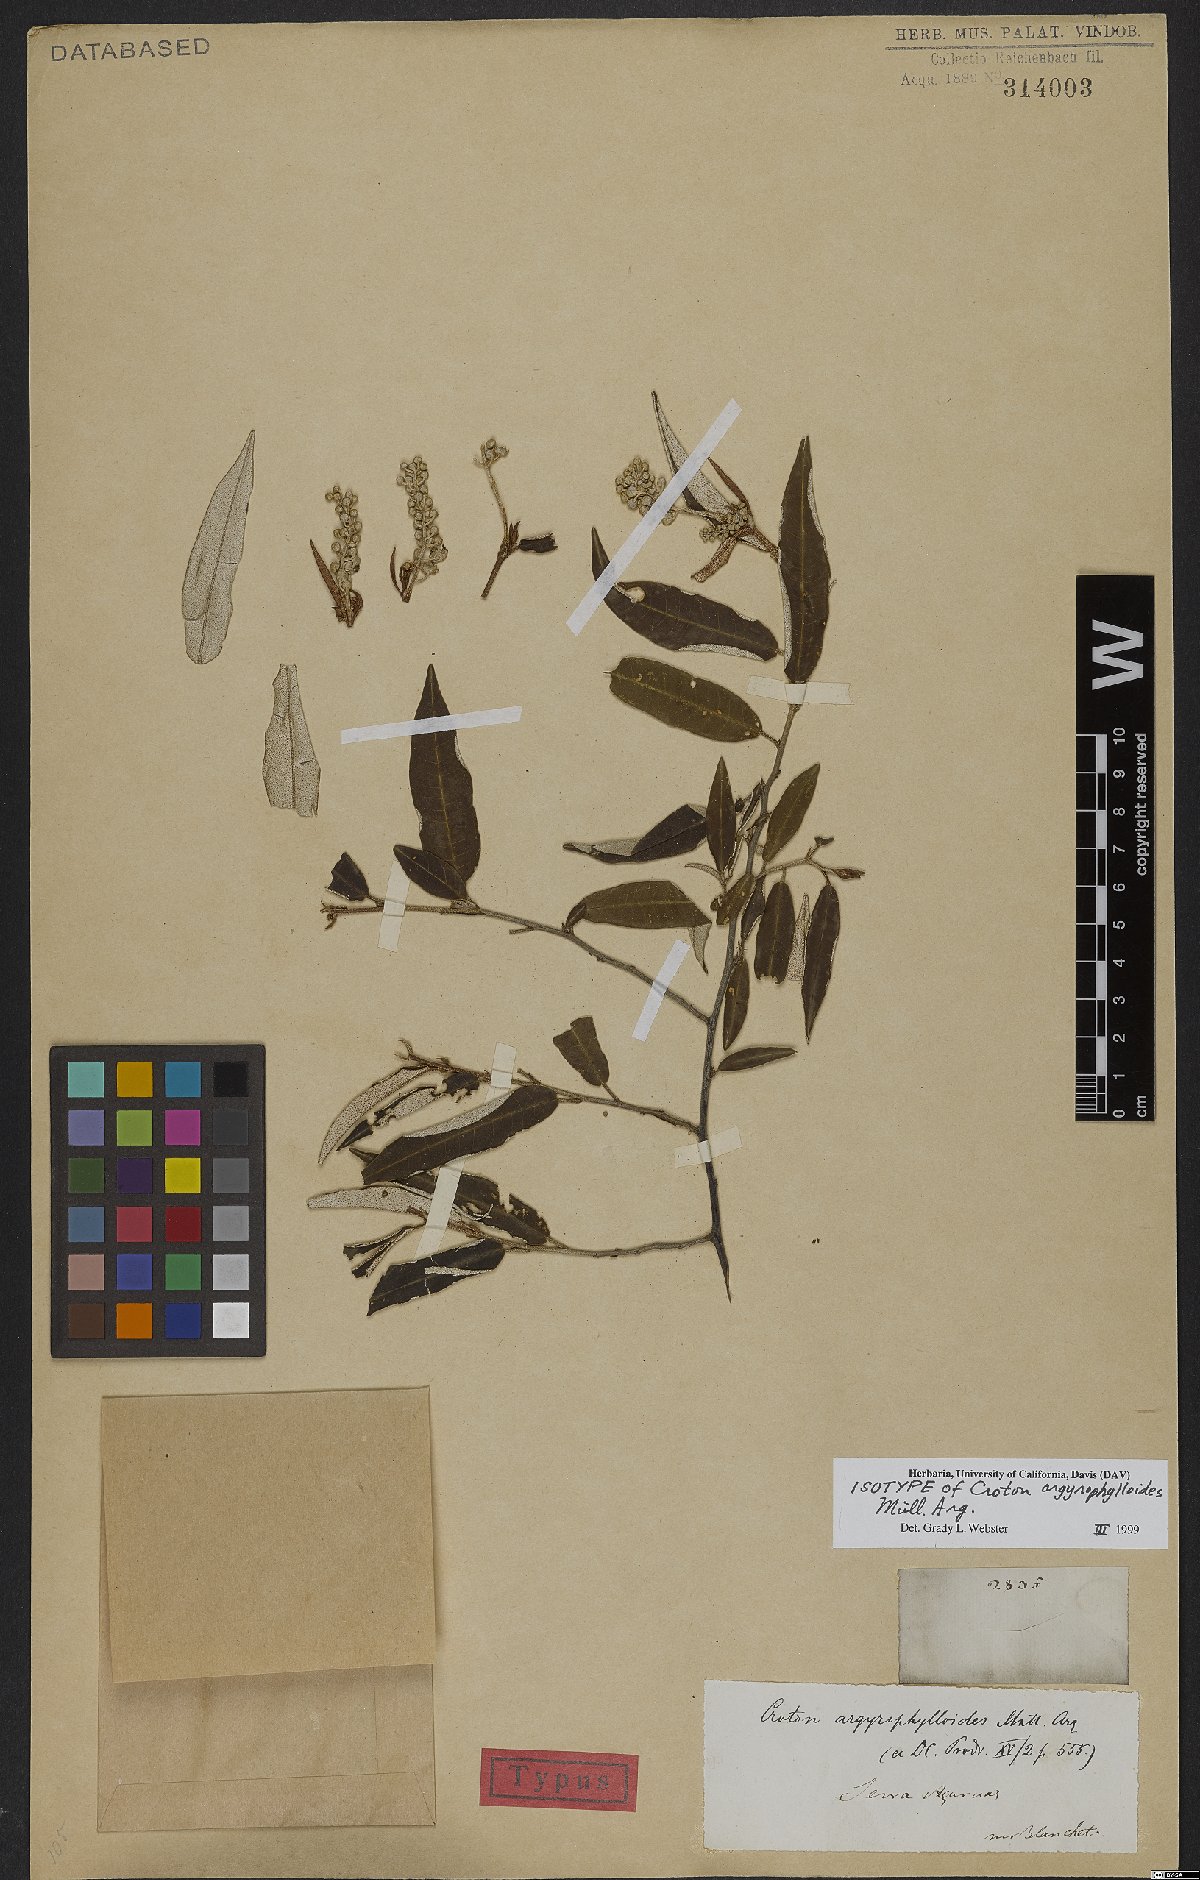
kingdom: Plantae
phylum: Tracheophyta
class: Magnoliopsida
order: Malpighiales
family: Euphorbiaceae
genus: Croton
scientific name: Croton tricolor
